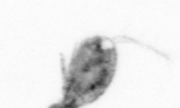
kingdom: Animalia
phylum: Arthropoda
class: Copepoda
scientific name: Copepoda
